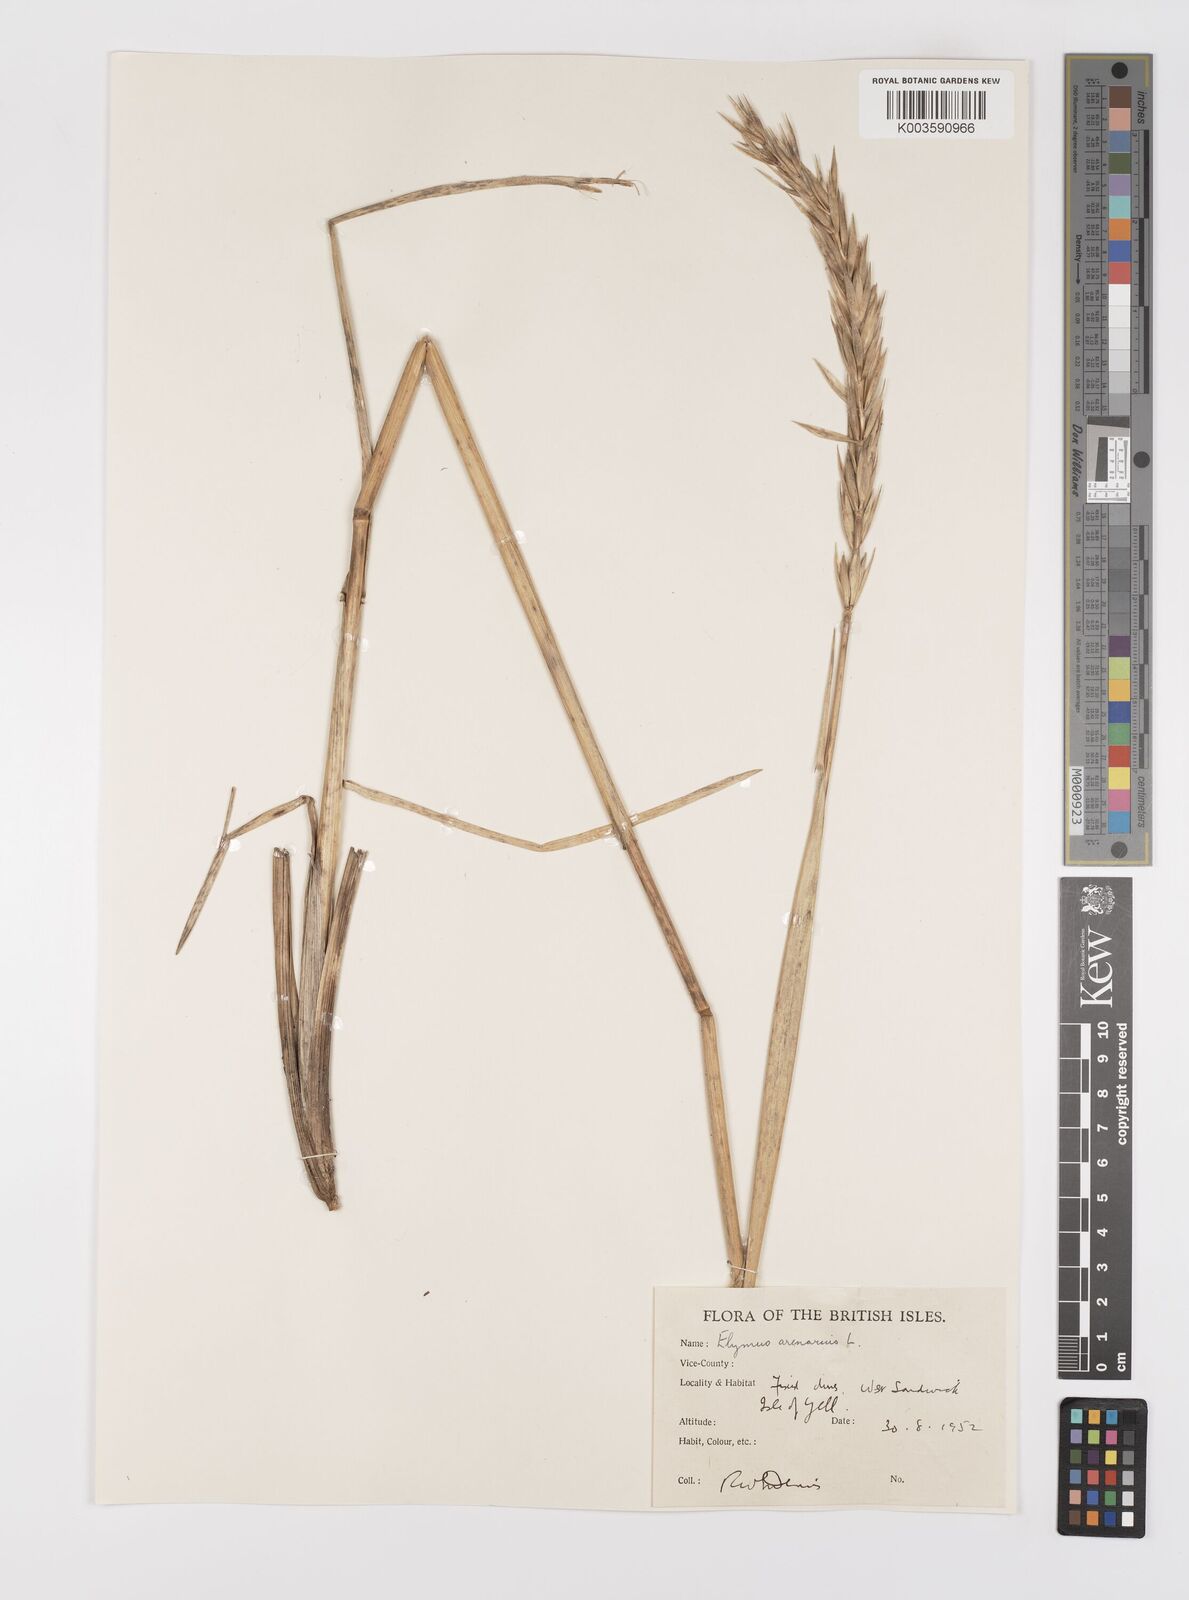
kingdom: Plantae
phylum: Tracheophyta
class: Liliopsida
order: Poales
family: Poaceae
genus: Leymus
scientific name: Leymus arenarius
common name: Lyme-grass
